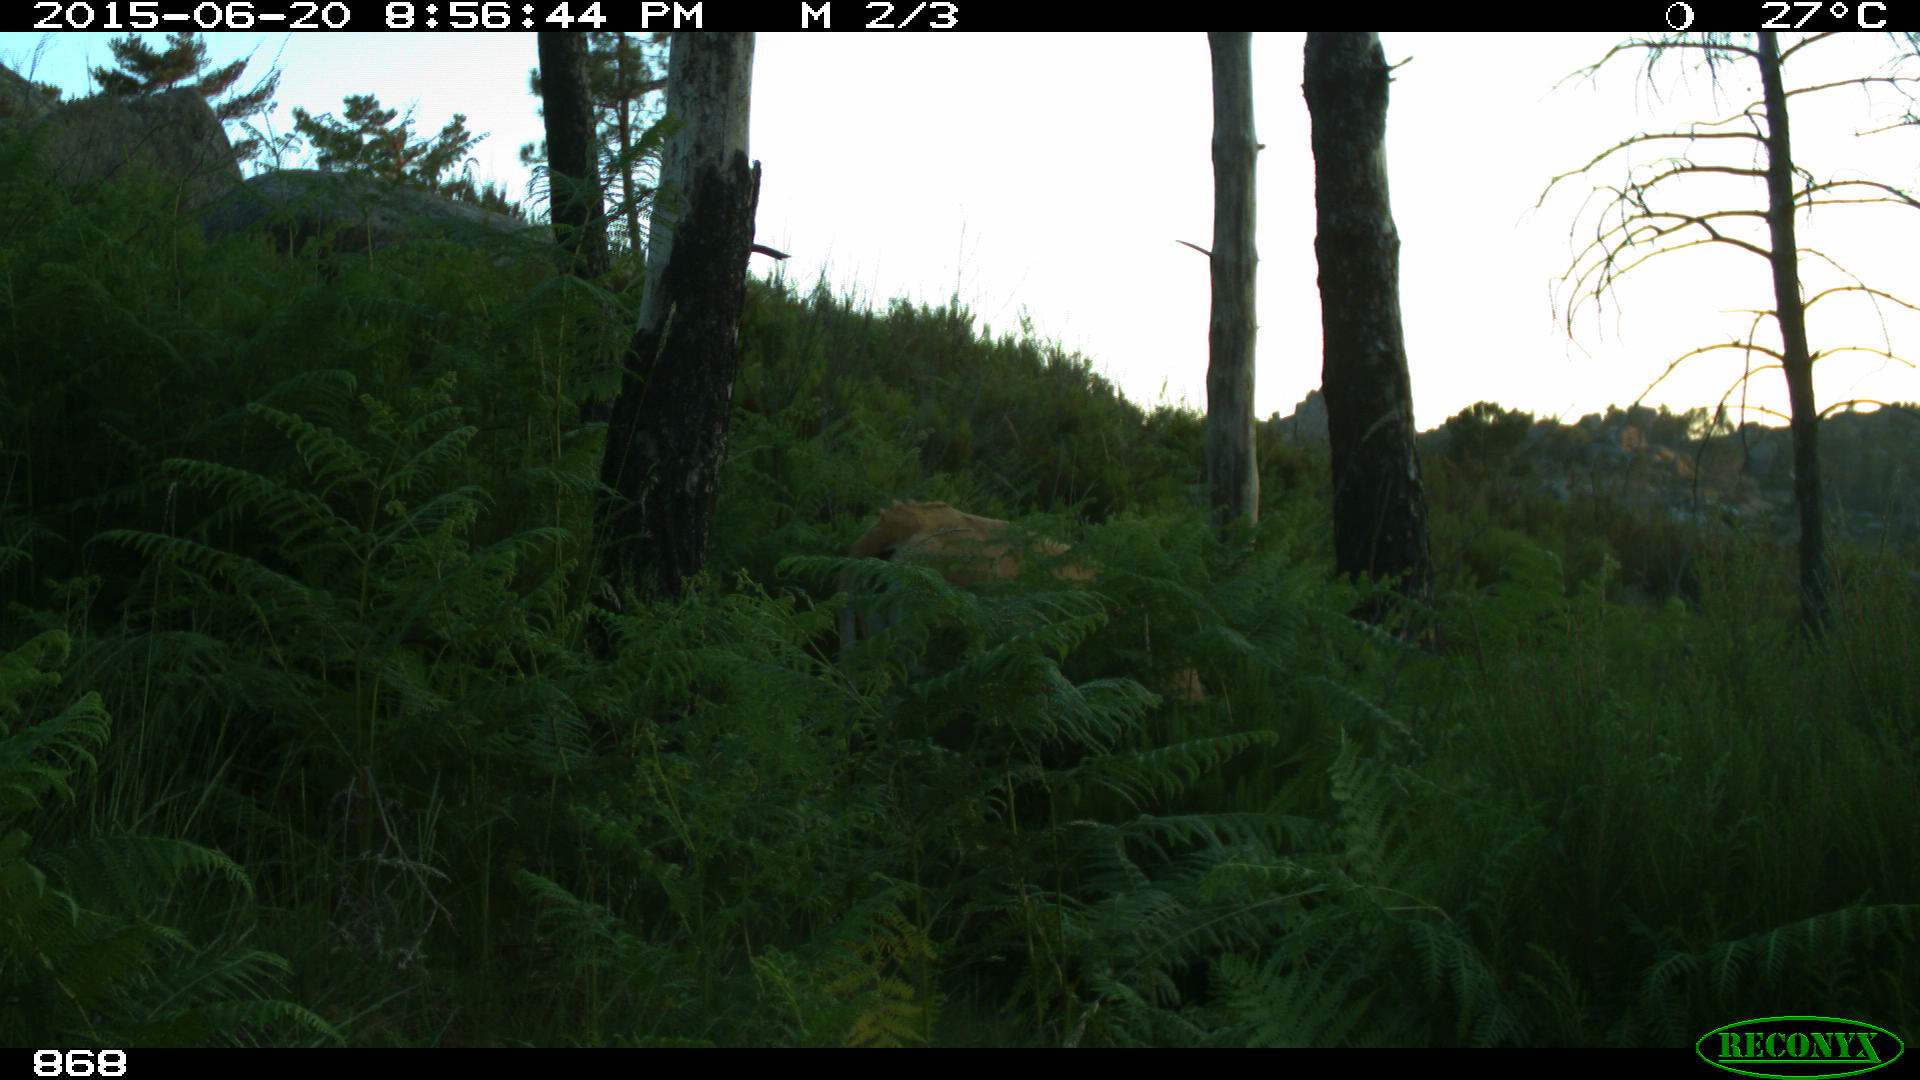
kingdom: Animalia
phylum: Chordata
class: Mammalia
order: Artiodactyla
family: Bovidae
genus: Bos
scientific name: Bos taurus
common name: Domesticated cattle
